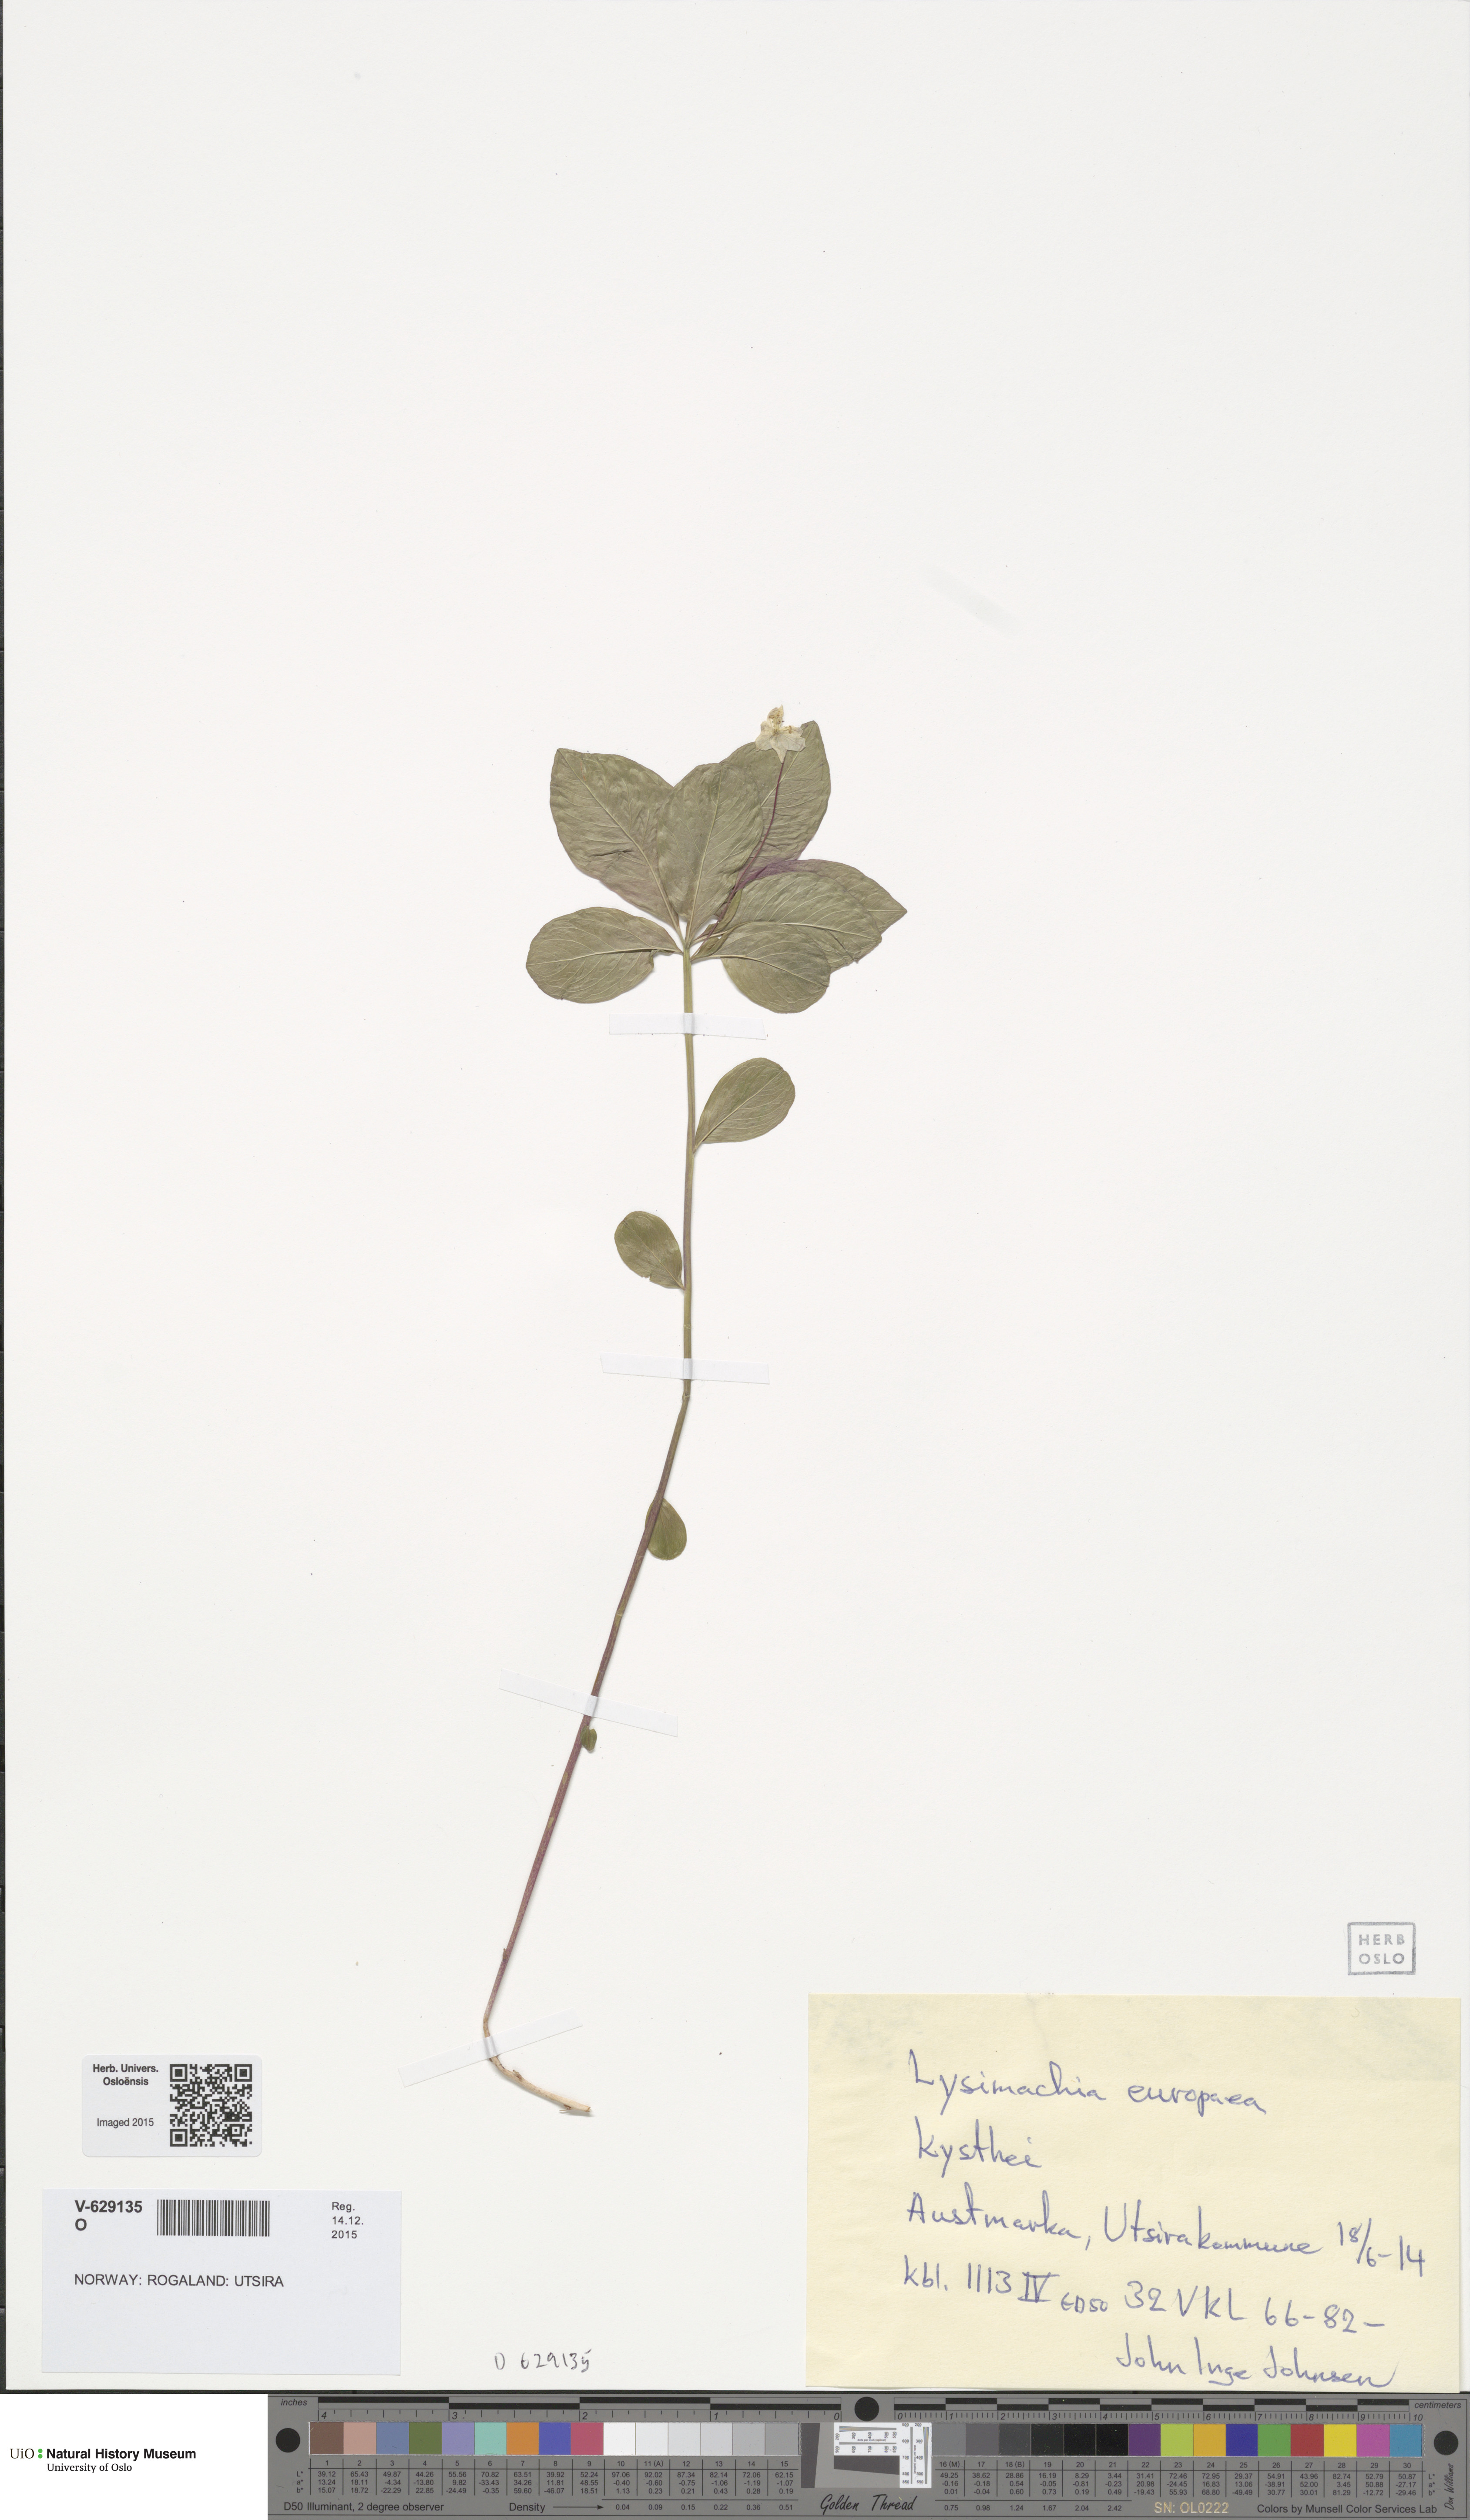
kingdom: Plantae
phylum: Tracheophyta
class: Magnoliopsida
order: Ericales
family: Primulaceae
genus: Lysimachia
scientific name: Lysimachia europaea
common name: Arctic starflower
